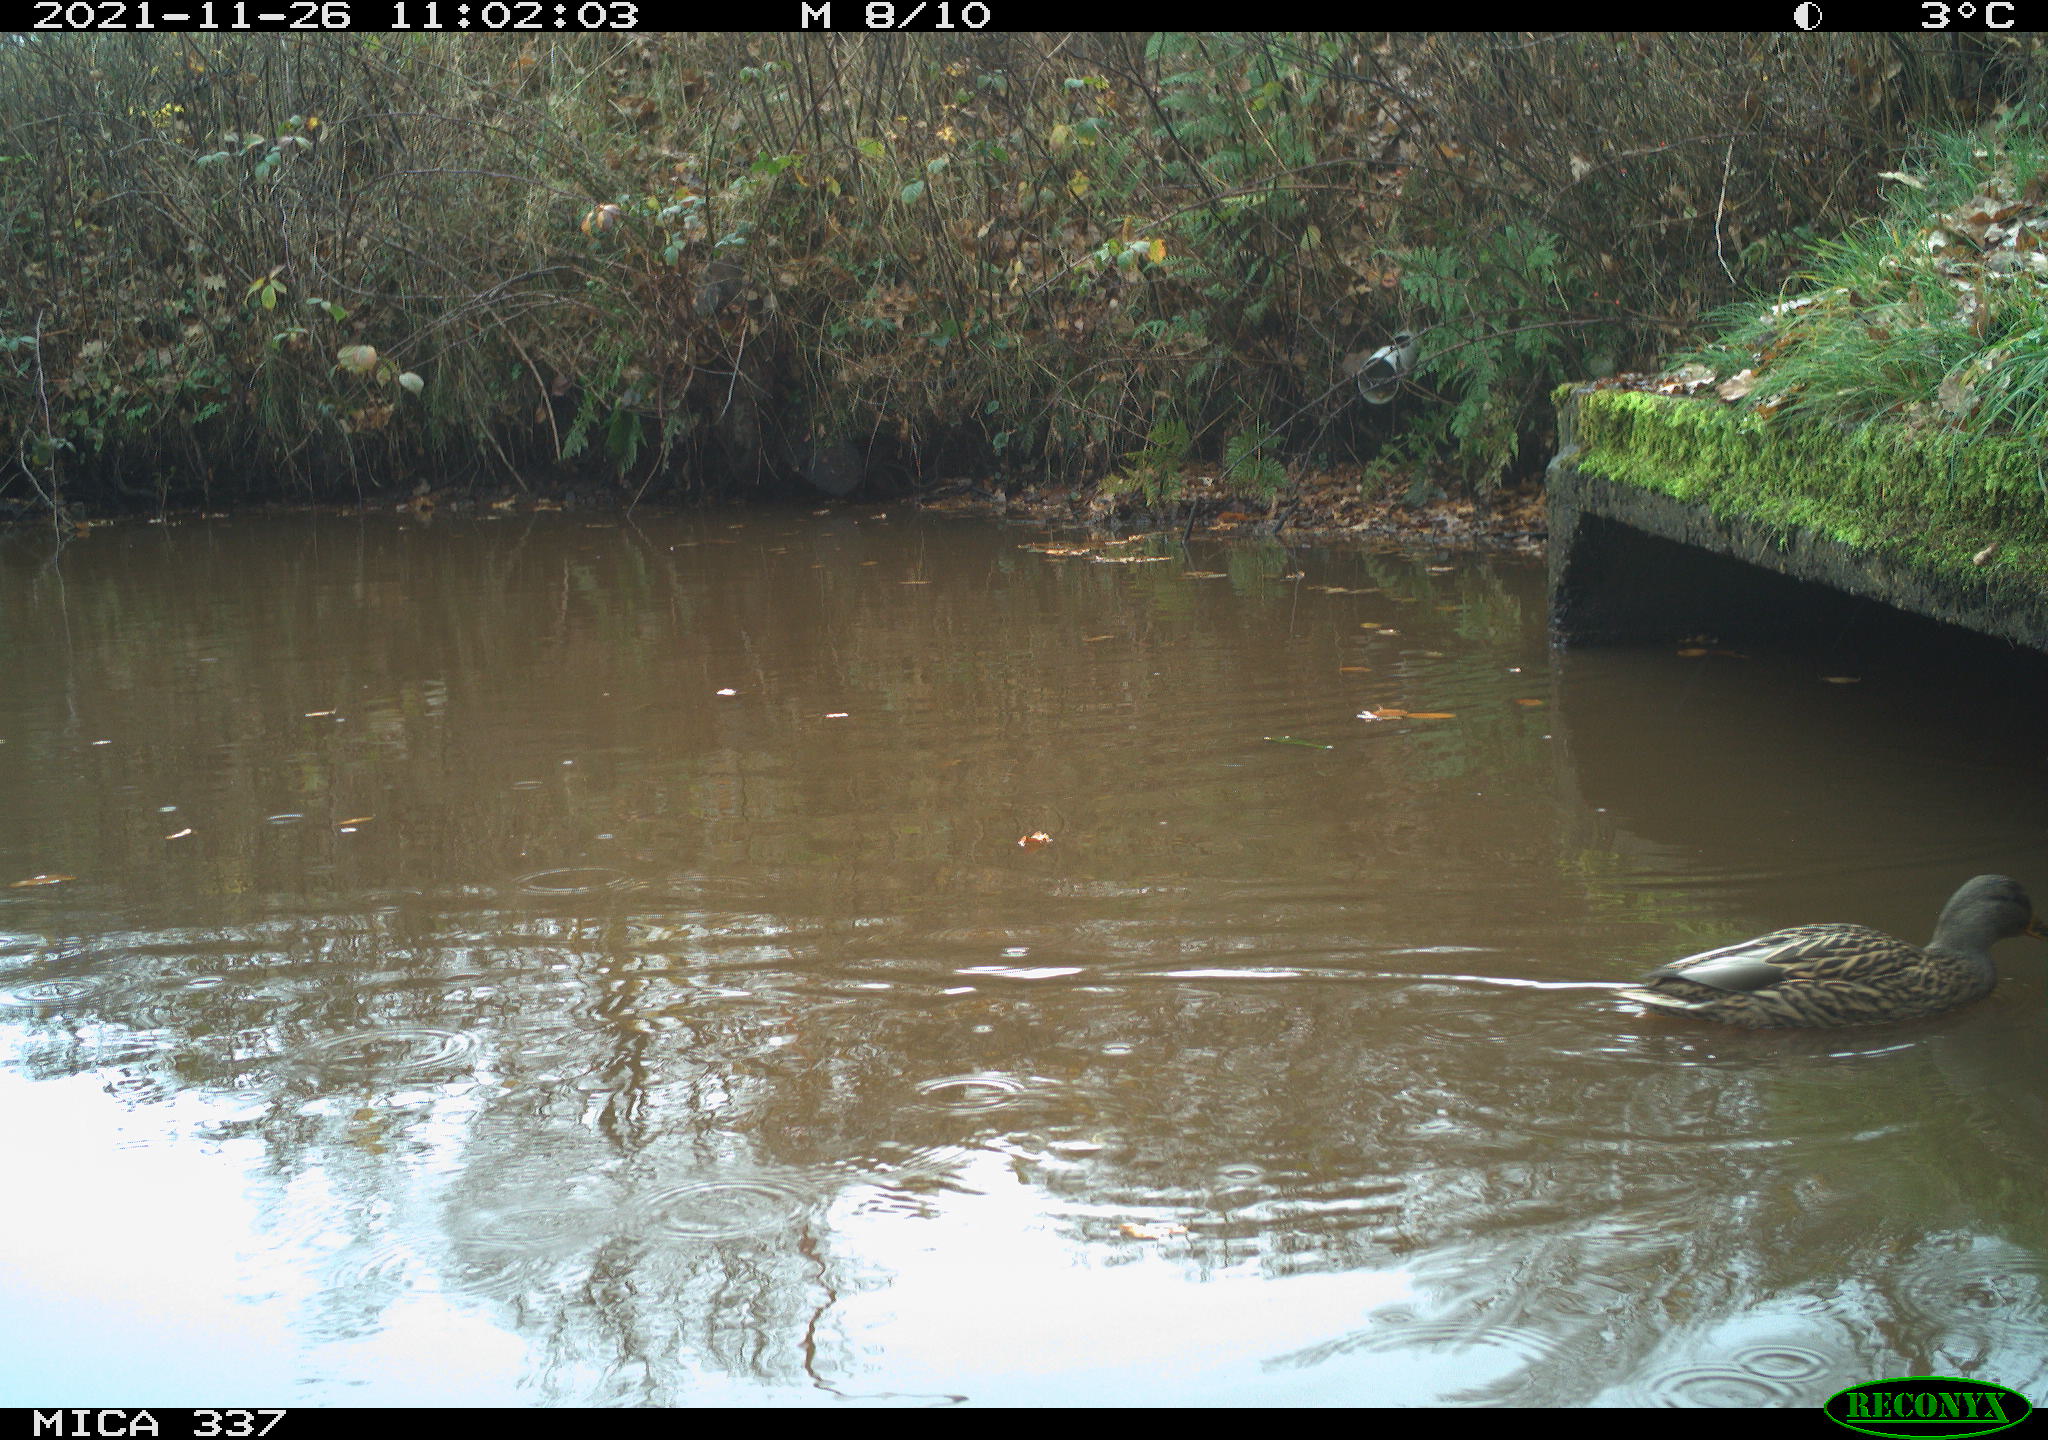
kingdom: Animalia
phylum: Chordata
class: Aves
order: Anseriformes
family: Anatidae
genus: Anas
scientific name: Anas platyrhynchos
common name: Mallard
